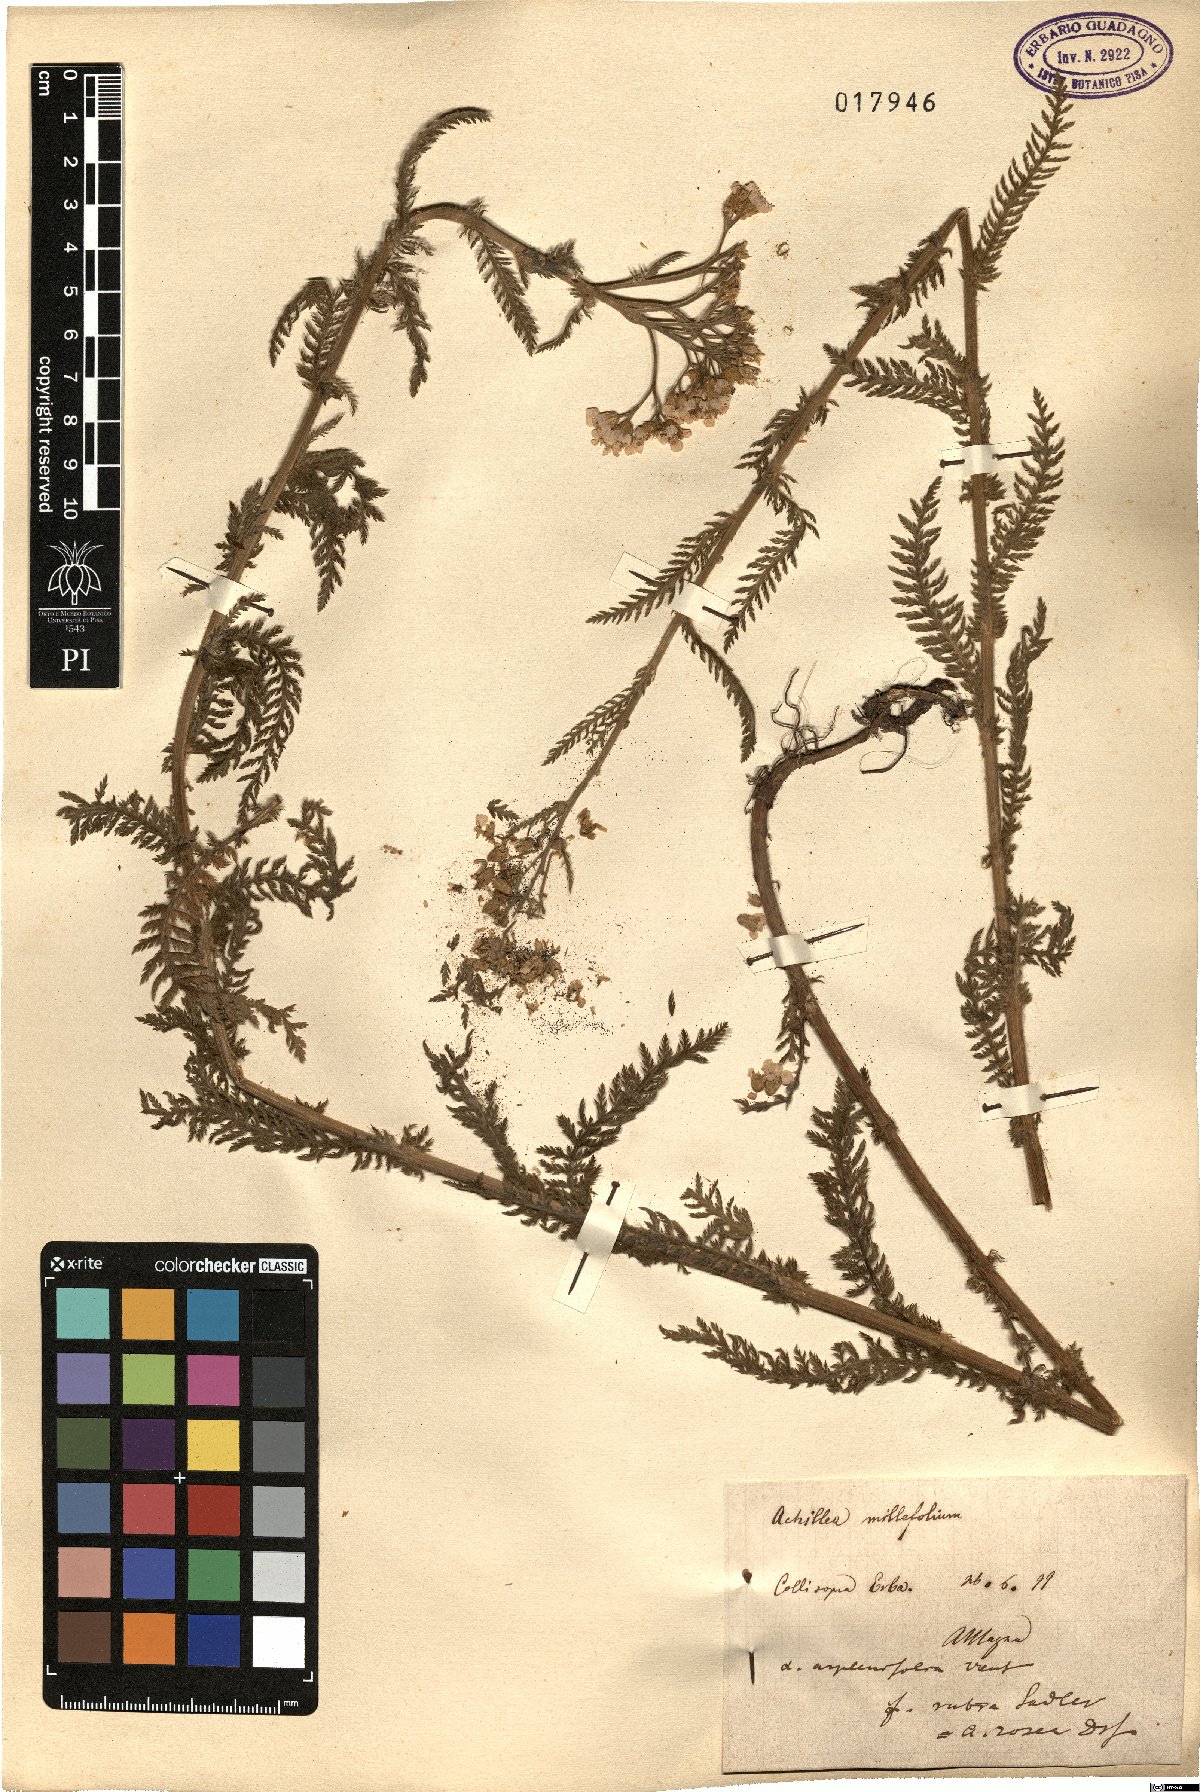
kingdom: Plantae
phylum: Tracheophyta
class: Magnoliopsida
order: Asterales
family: Asteraceae
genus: Achillea
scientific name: Achillea millefolium
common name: Yarrow
